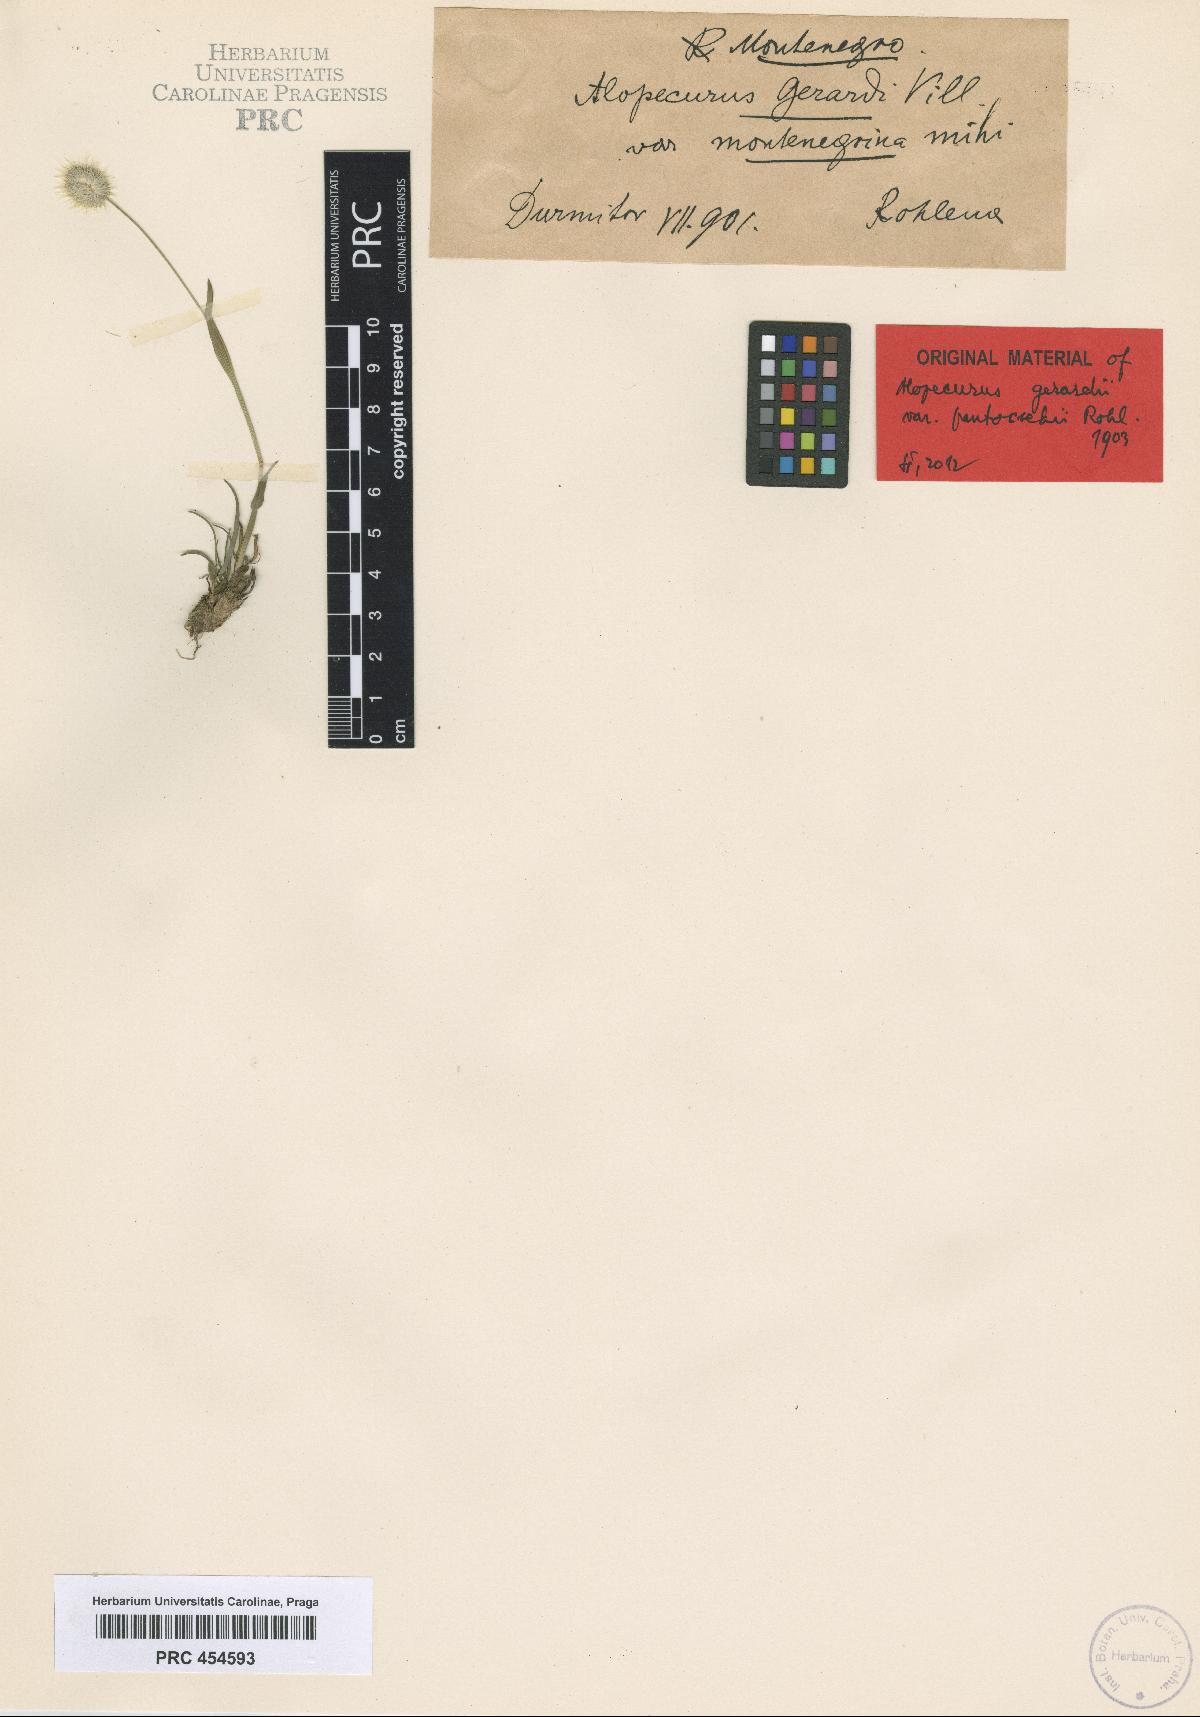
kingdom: Plantae
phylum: Tracheophyta
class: Liliopsida
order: Poales
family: Poaceae
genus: Alopecurus
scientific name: Alopecurus gerardii
